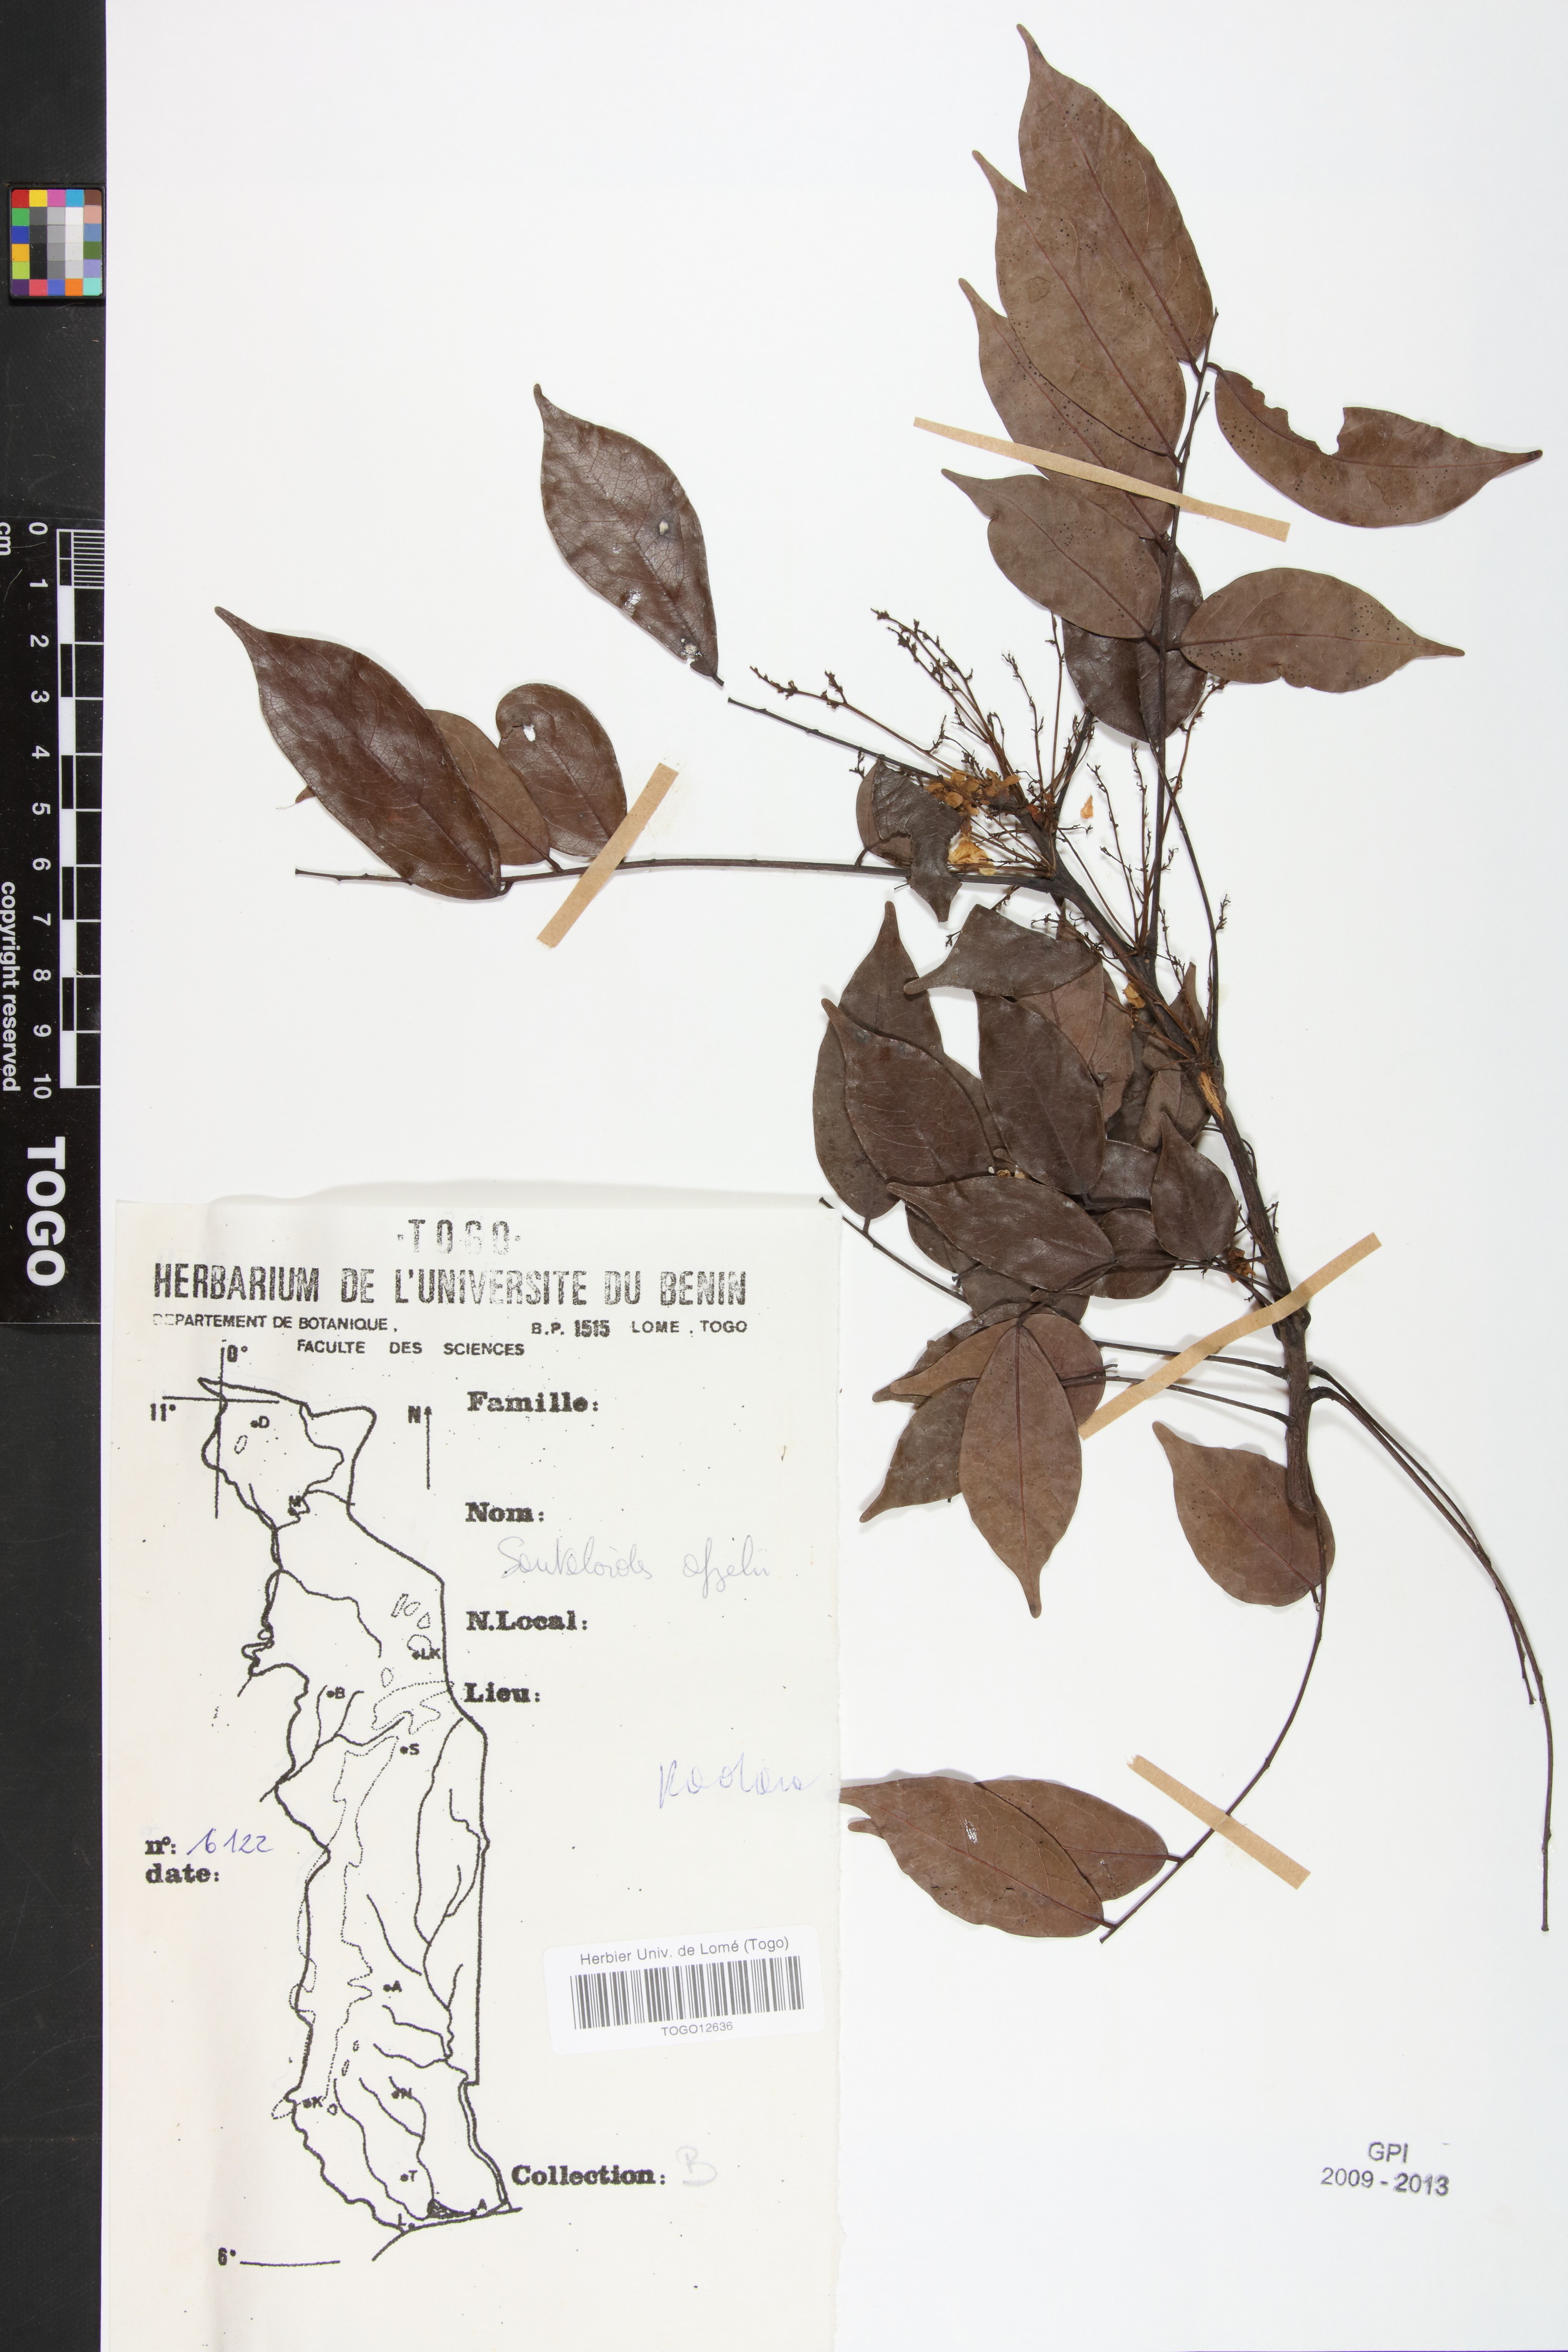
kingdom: Plantae
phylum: Tracheophyta
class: Magnoliopsida
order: Oxalidales
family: Connaraceae
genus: Rourea
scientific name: Rourea minor
